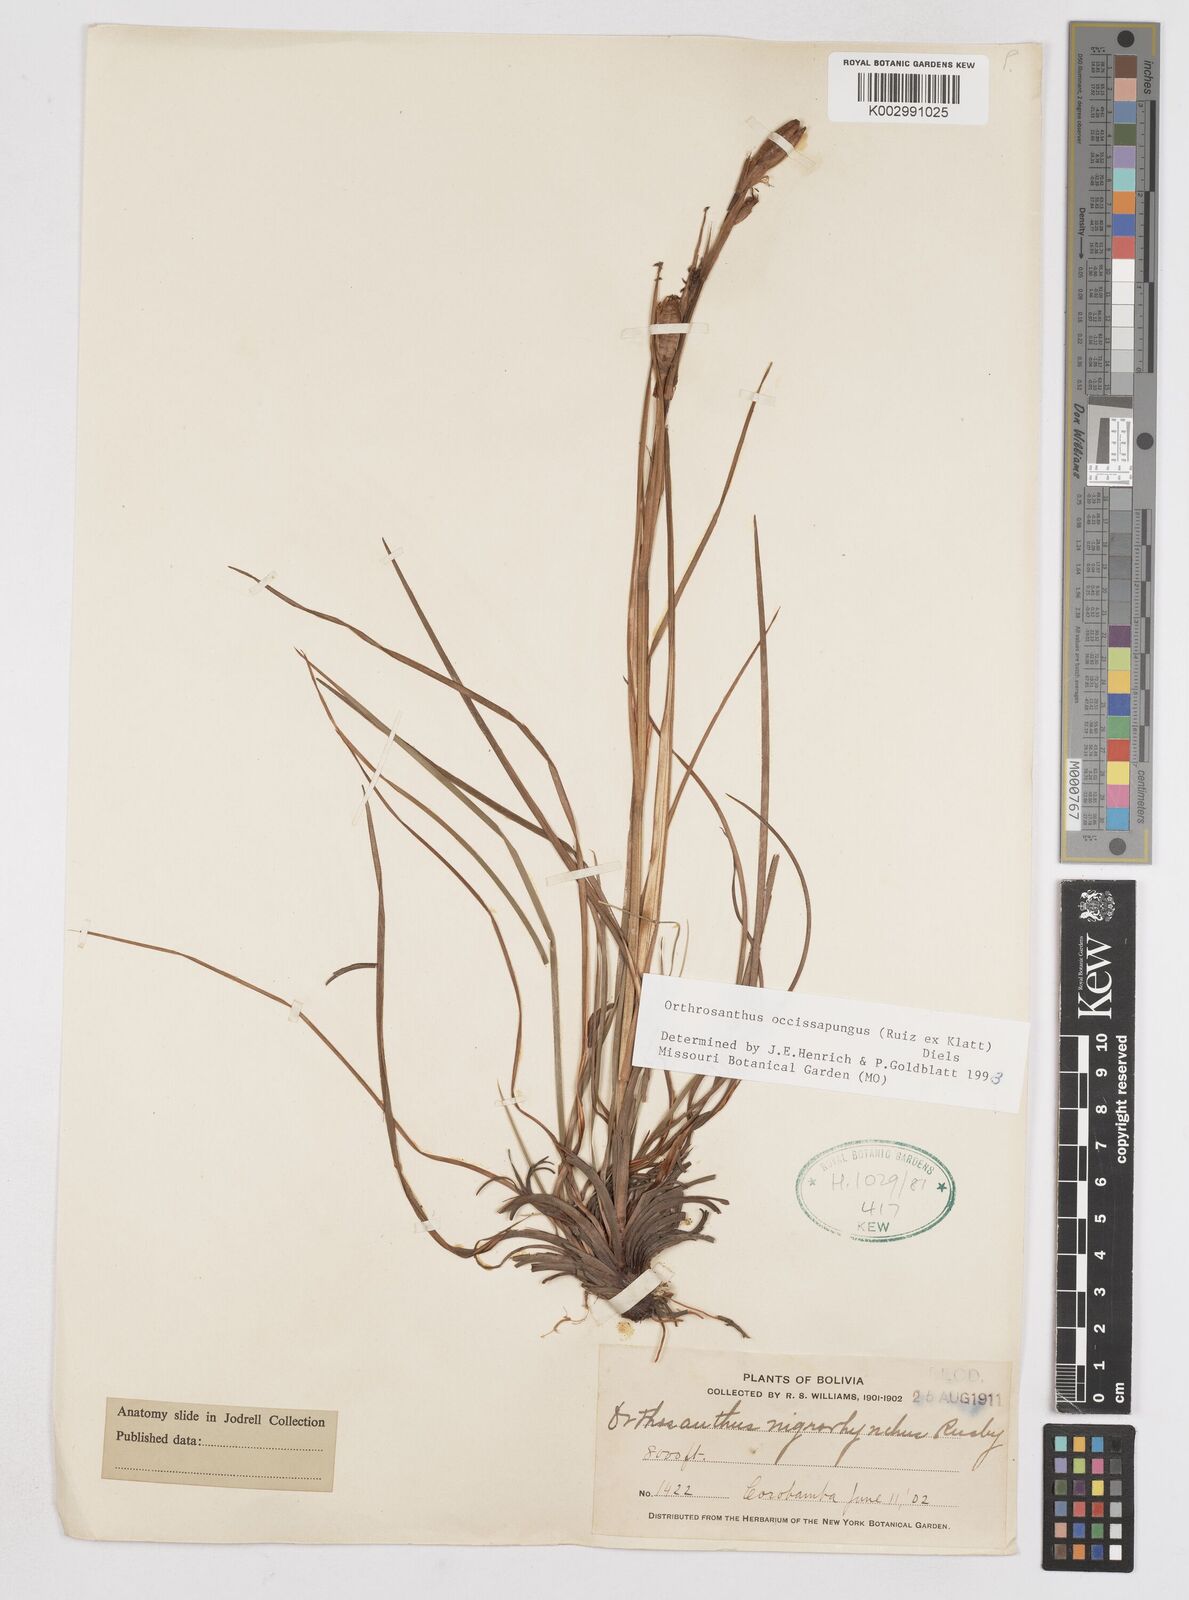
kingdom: Plantae
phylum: Tracheophyta
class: Liliopsida
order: Asparagales
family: Iridaceae
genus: Orthrosanthus
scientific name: Orthrosanthus occissapungus
